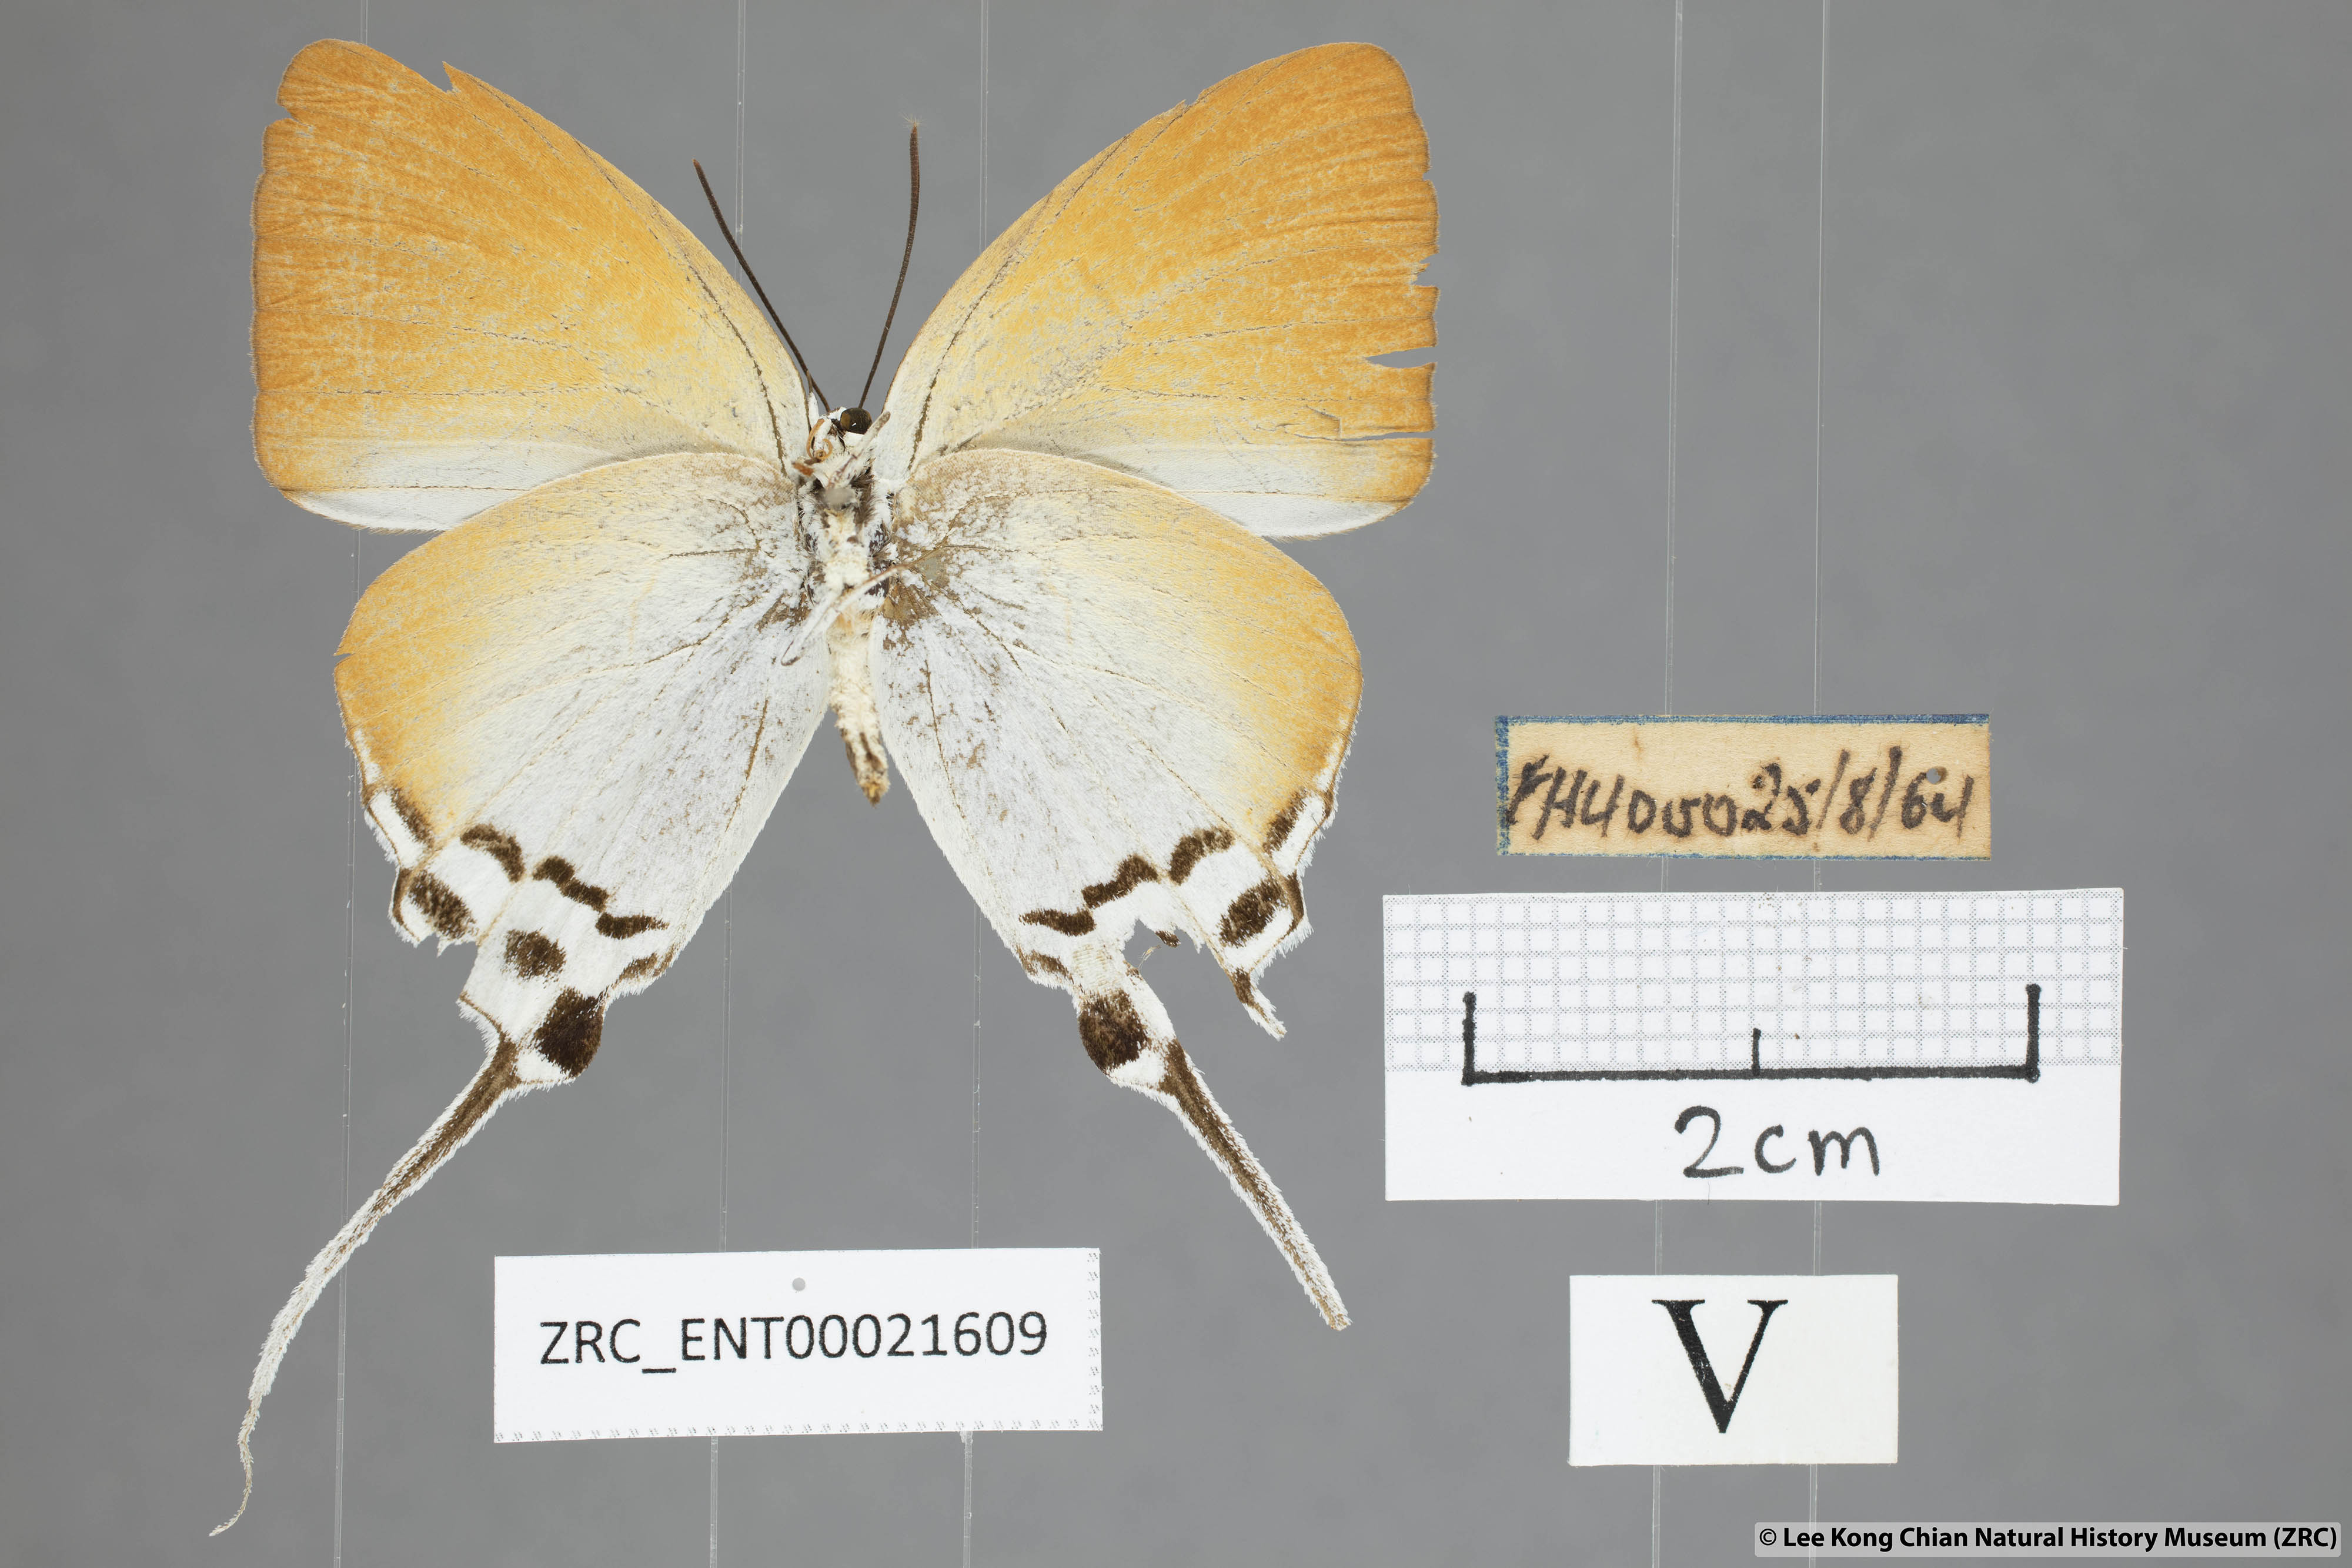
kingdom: Animalia
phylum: Arthropoda
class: Insecta
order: Lepidoptera
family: Lycaenidae
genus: Neocheritra
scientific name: Neocheritra amrita
